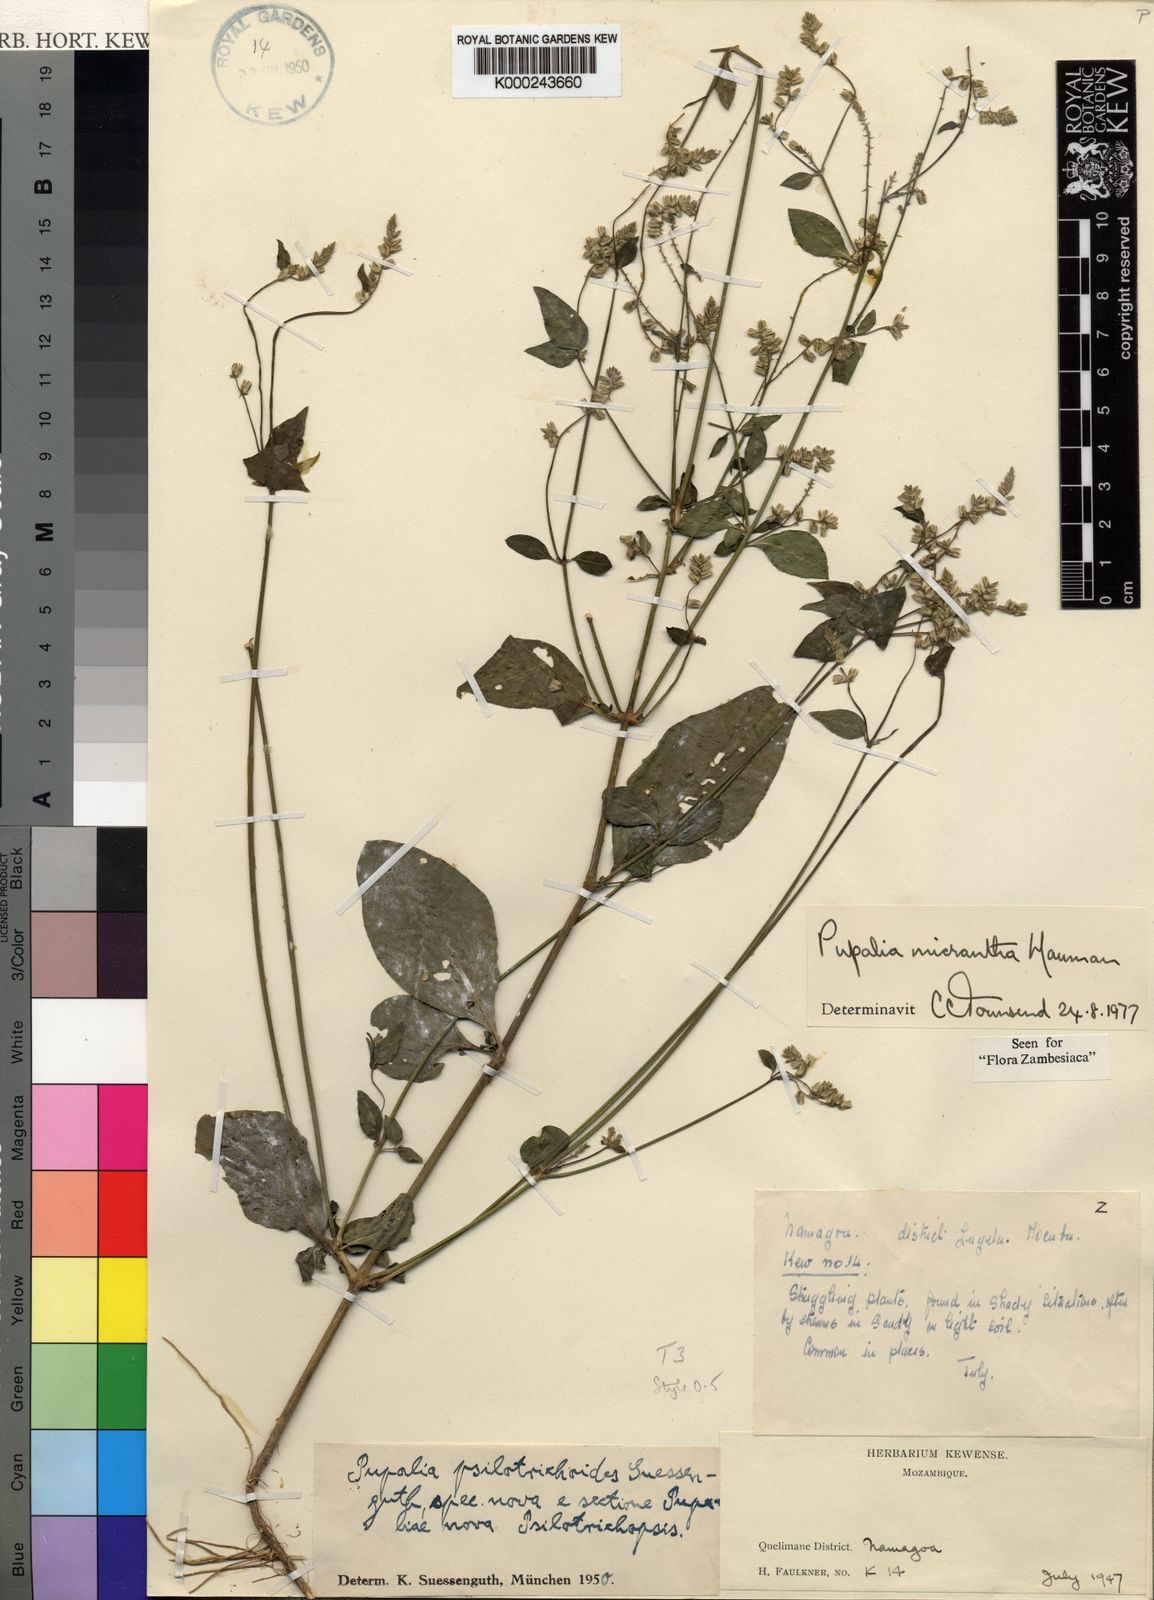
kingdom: Plantae
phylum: Tracheophyta
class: Magnoliopsida
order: Caryophyllales
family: Amaranthaceae
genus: Pupalia
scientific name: Pupalia micrantha
